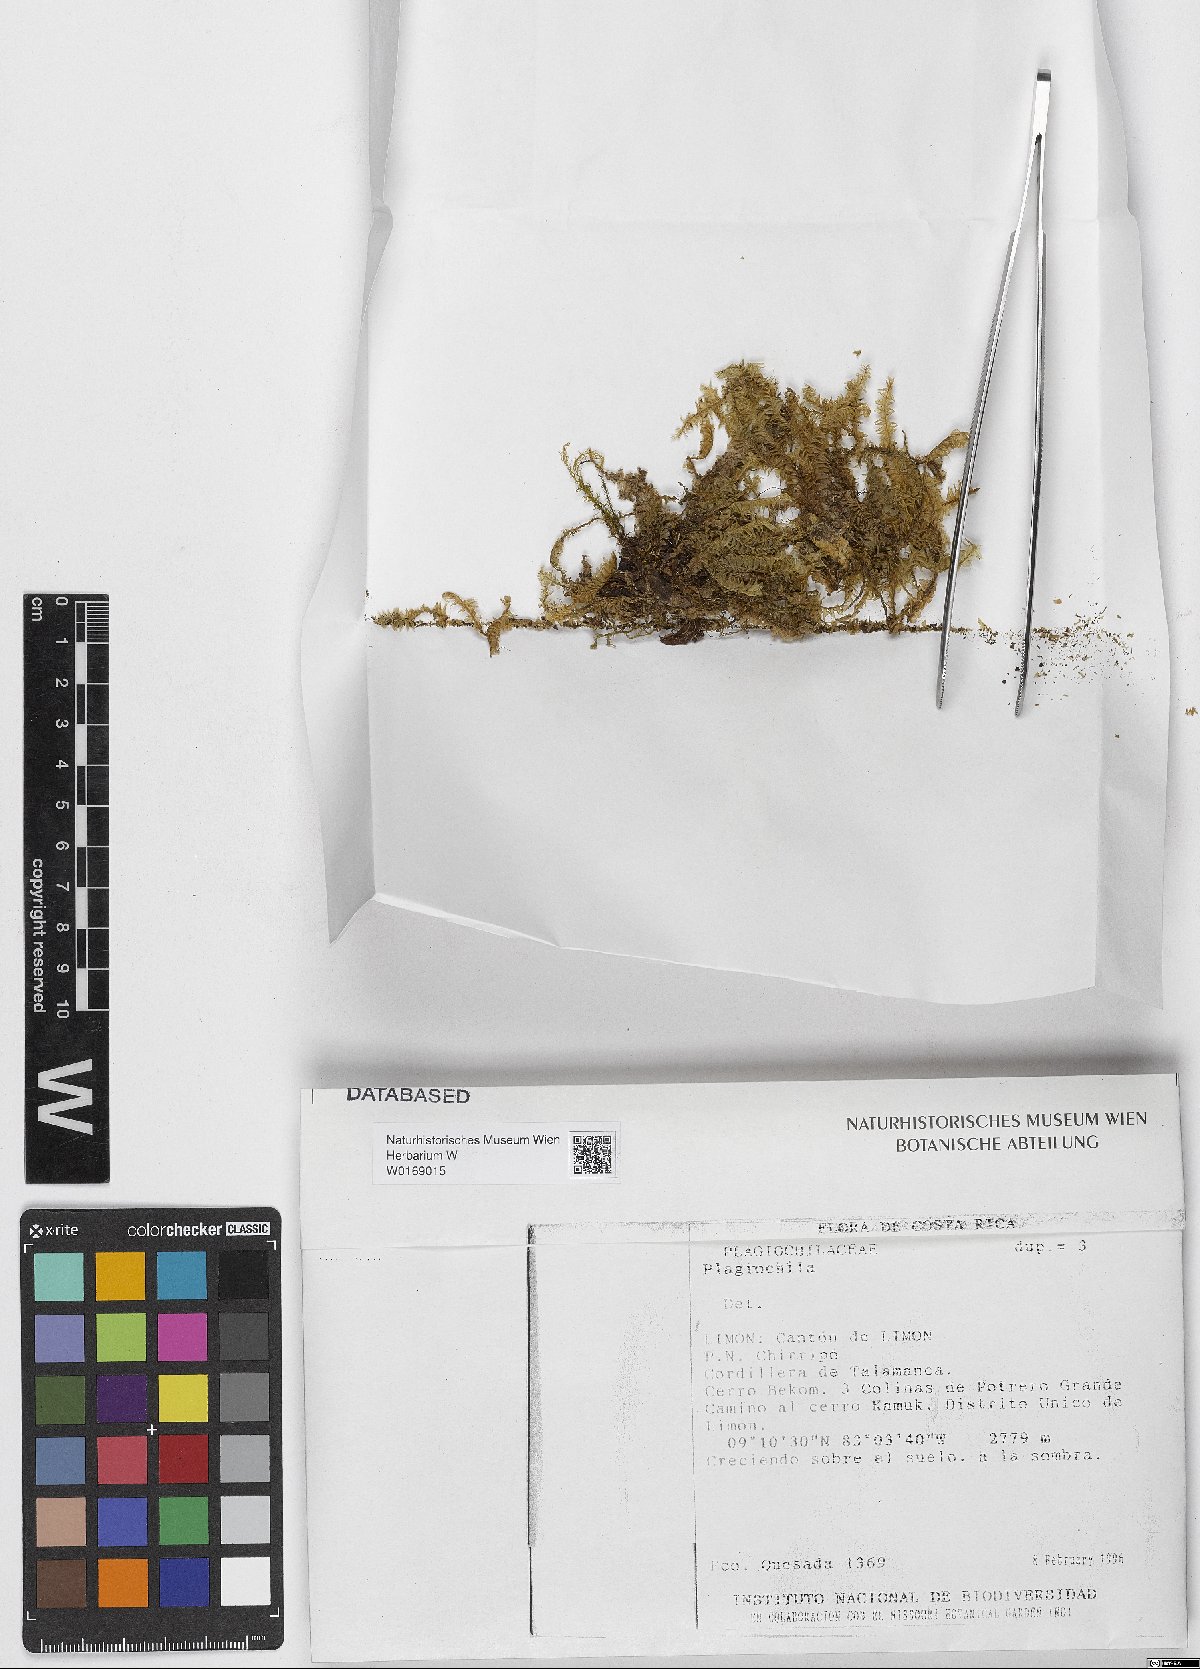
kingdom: Plantae
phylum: Marchantiophyta
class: Jungermanniopsida
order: Jungermanniales
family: Plagiochilaceae
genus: Plagiochila
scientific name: Plagiochila
